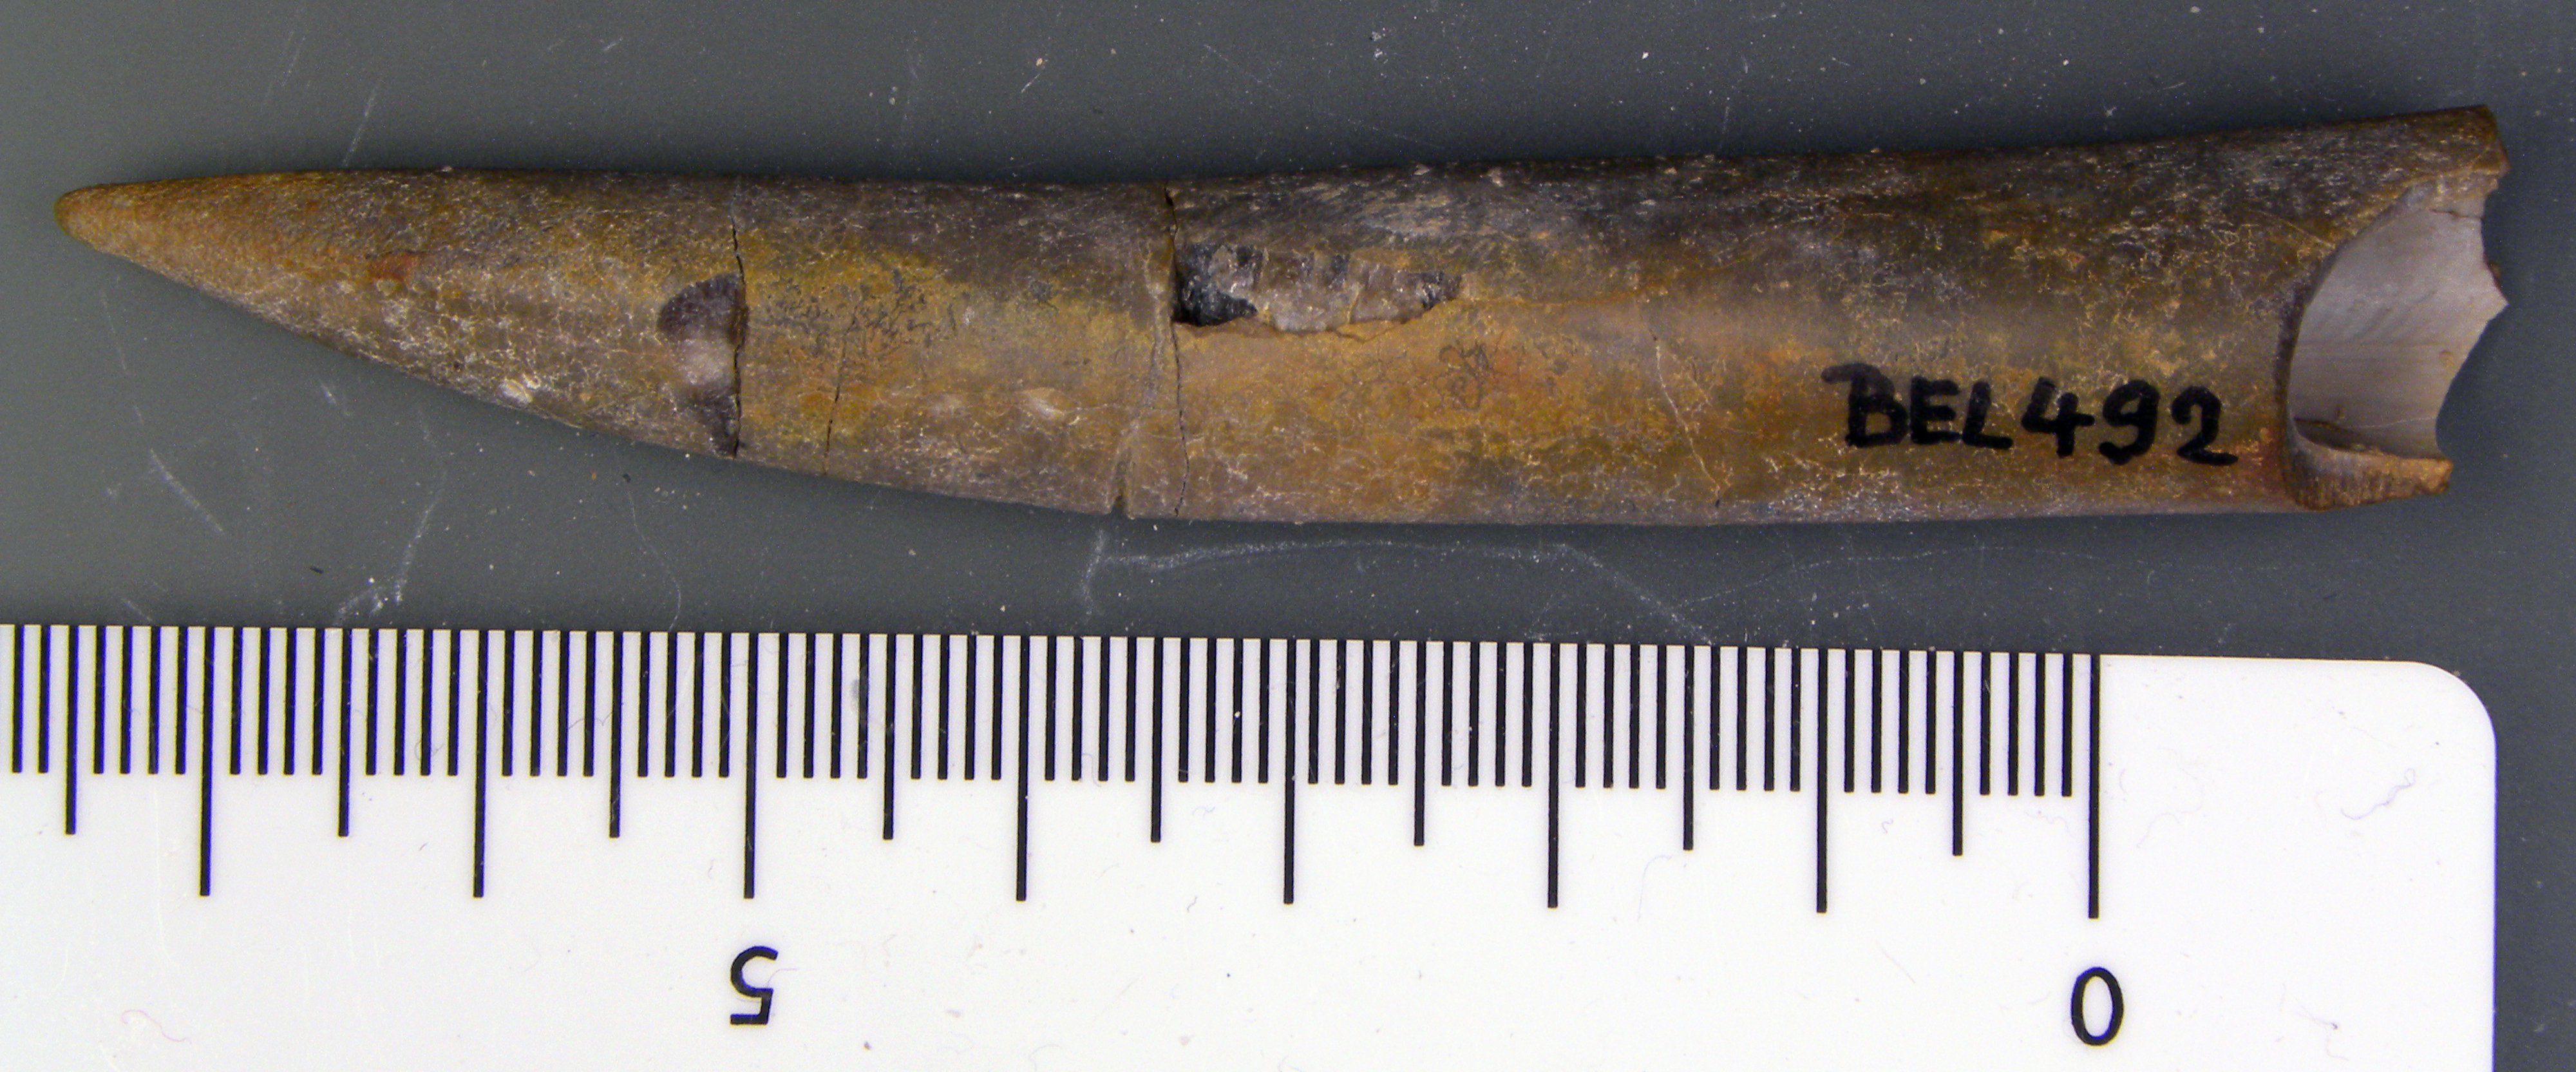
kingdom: Animalia
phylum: Mollusca
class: Cephalopoda
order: Belemnitida
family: Megateuthididae
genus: Acrocoelites
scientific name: Acrocoelites ilminstrensis
